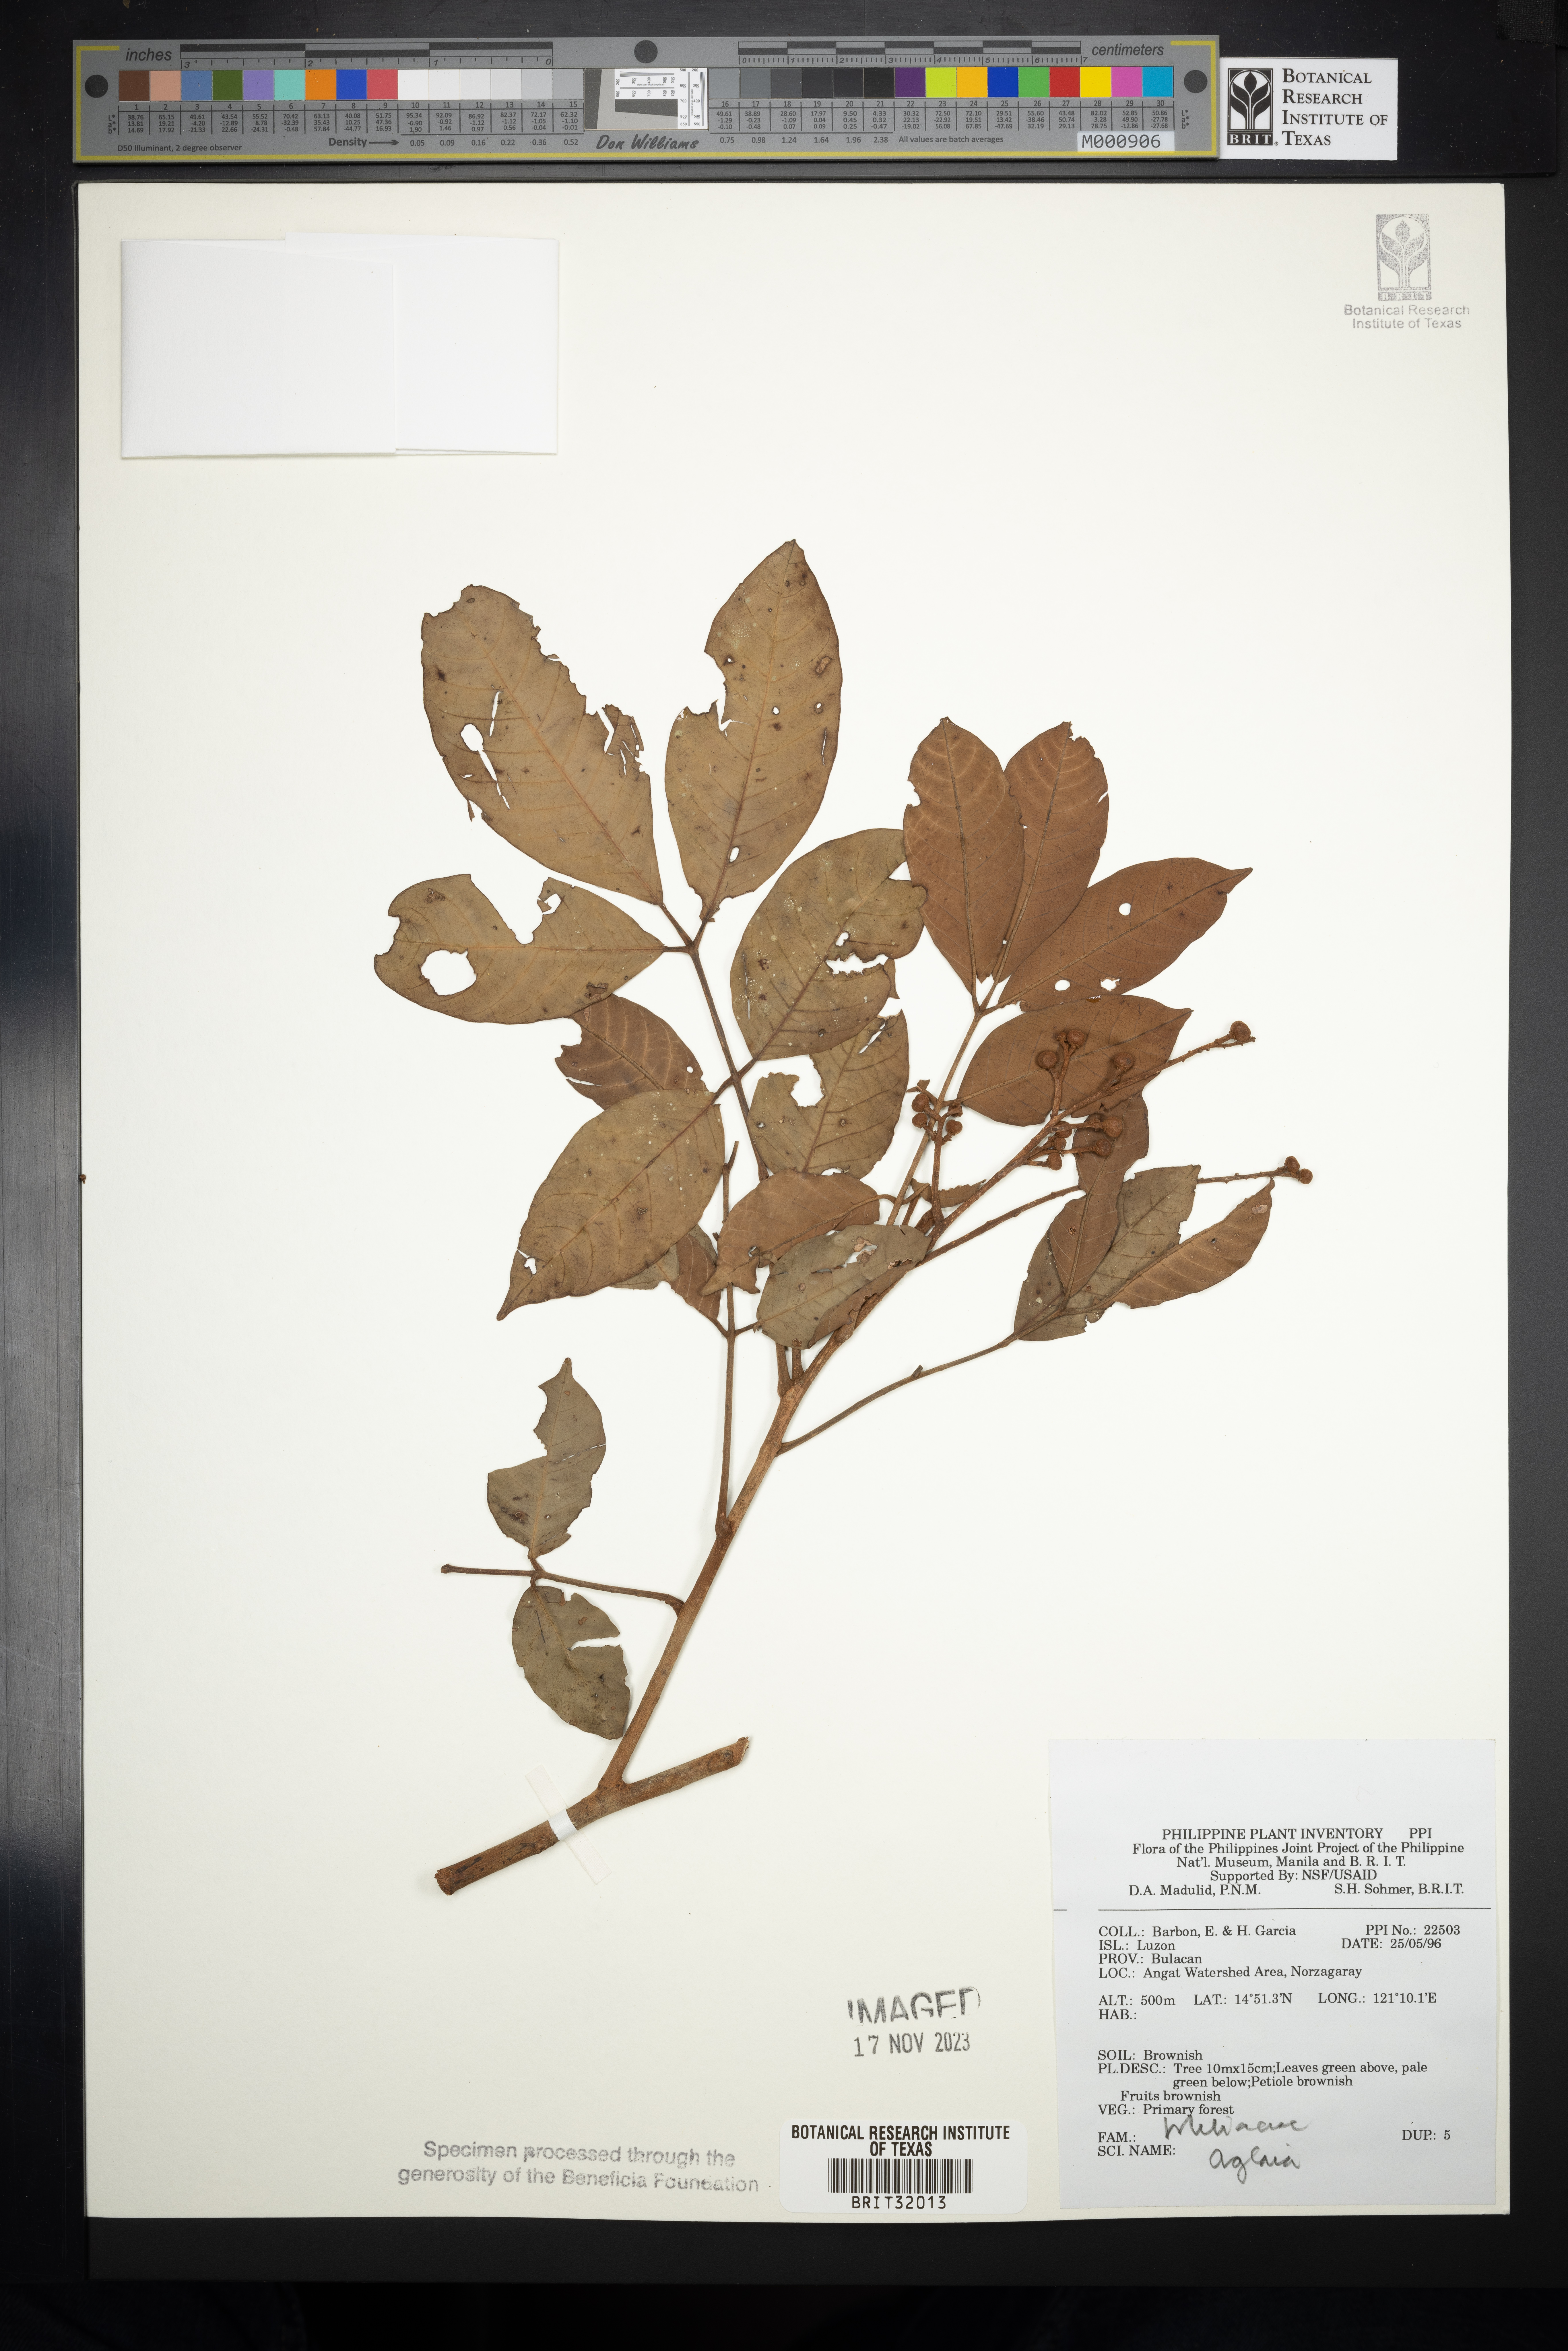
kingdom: Plantae
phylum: Tracheophyta
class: Magnoliopsida
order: Sapindales
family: Meliaceae
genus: Aglaia
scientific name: Aglaia
